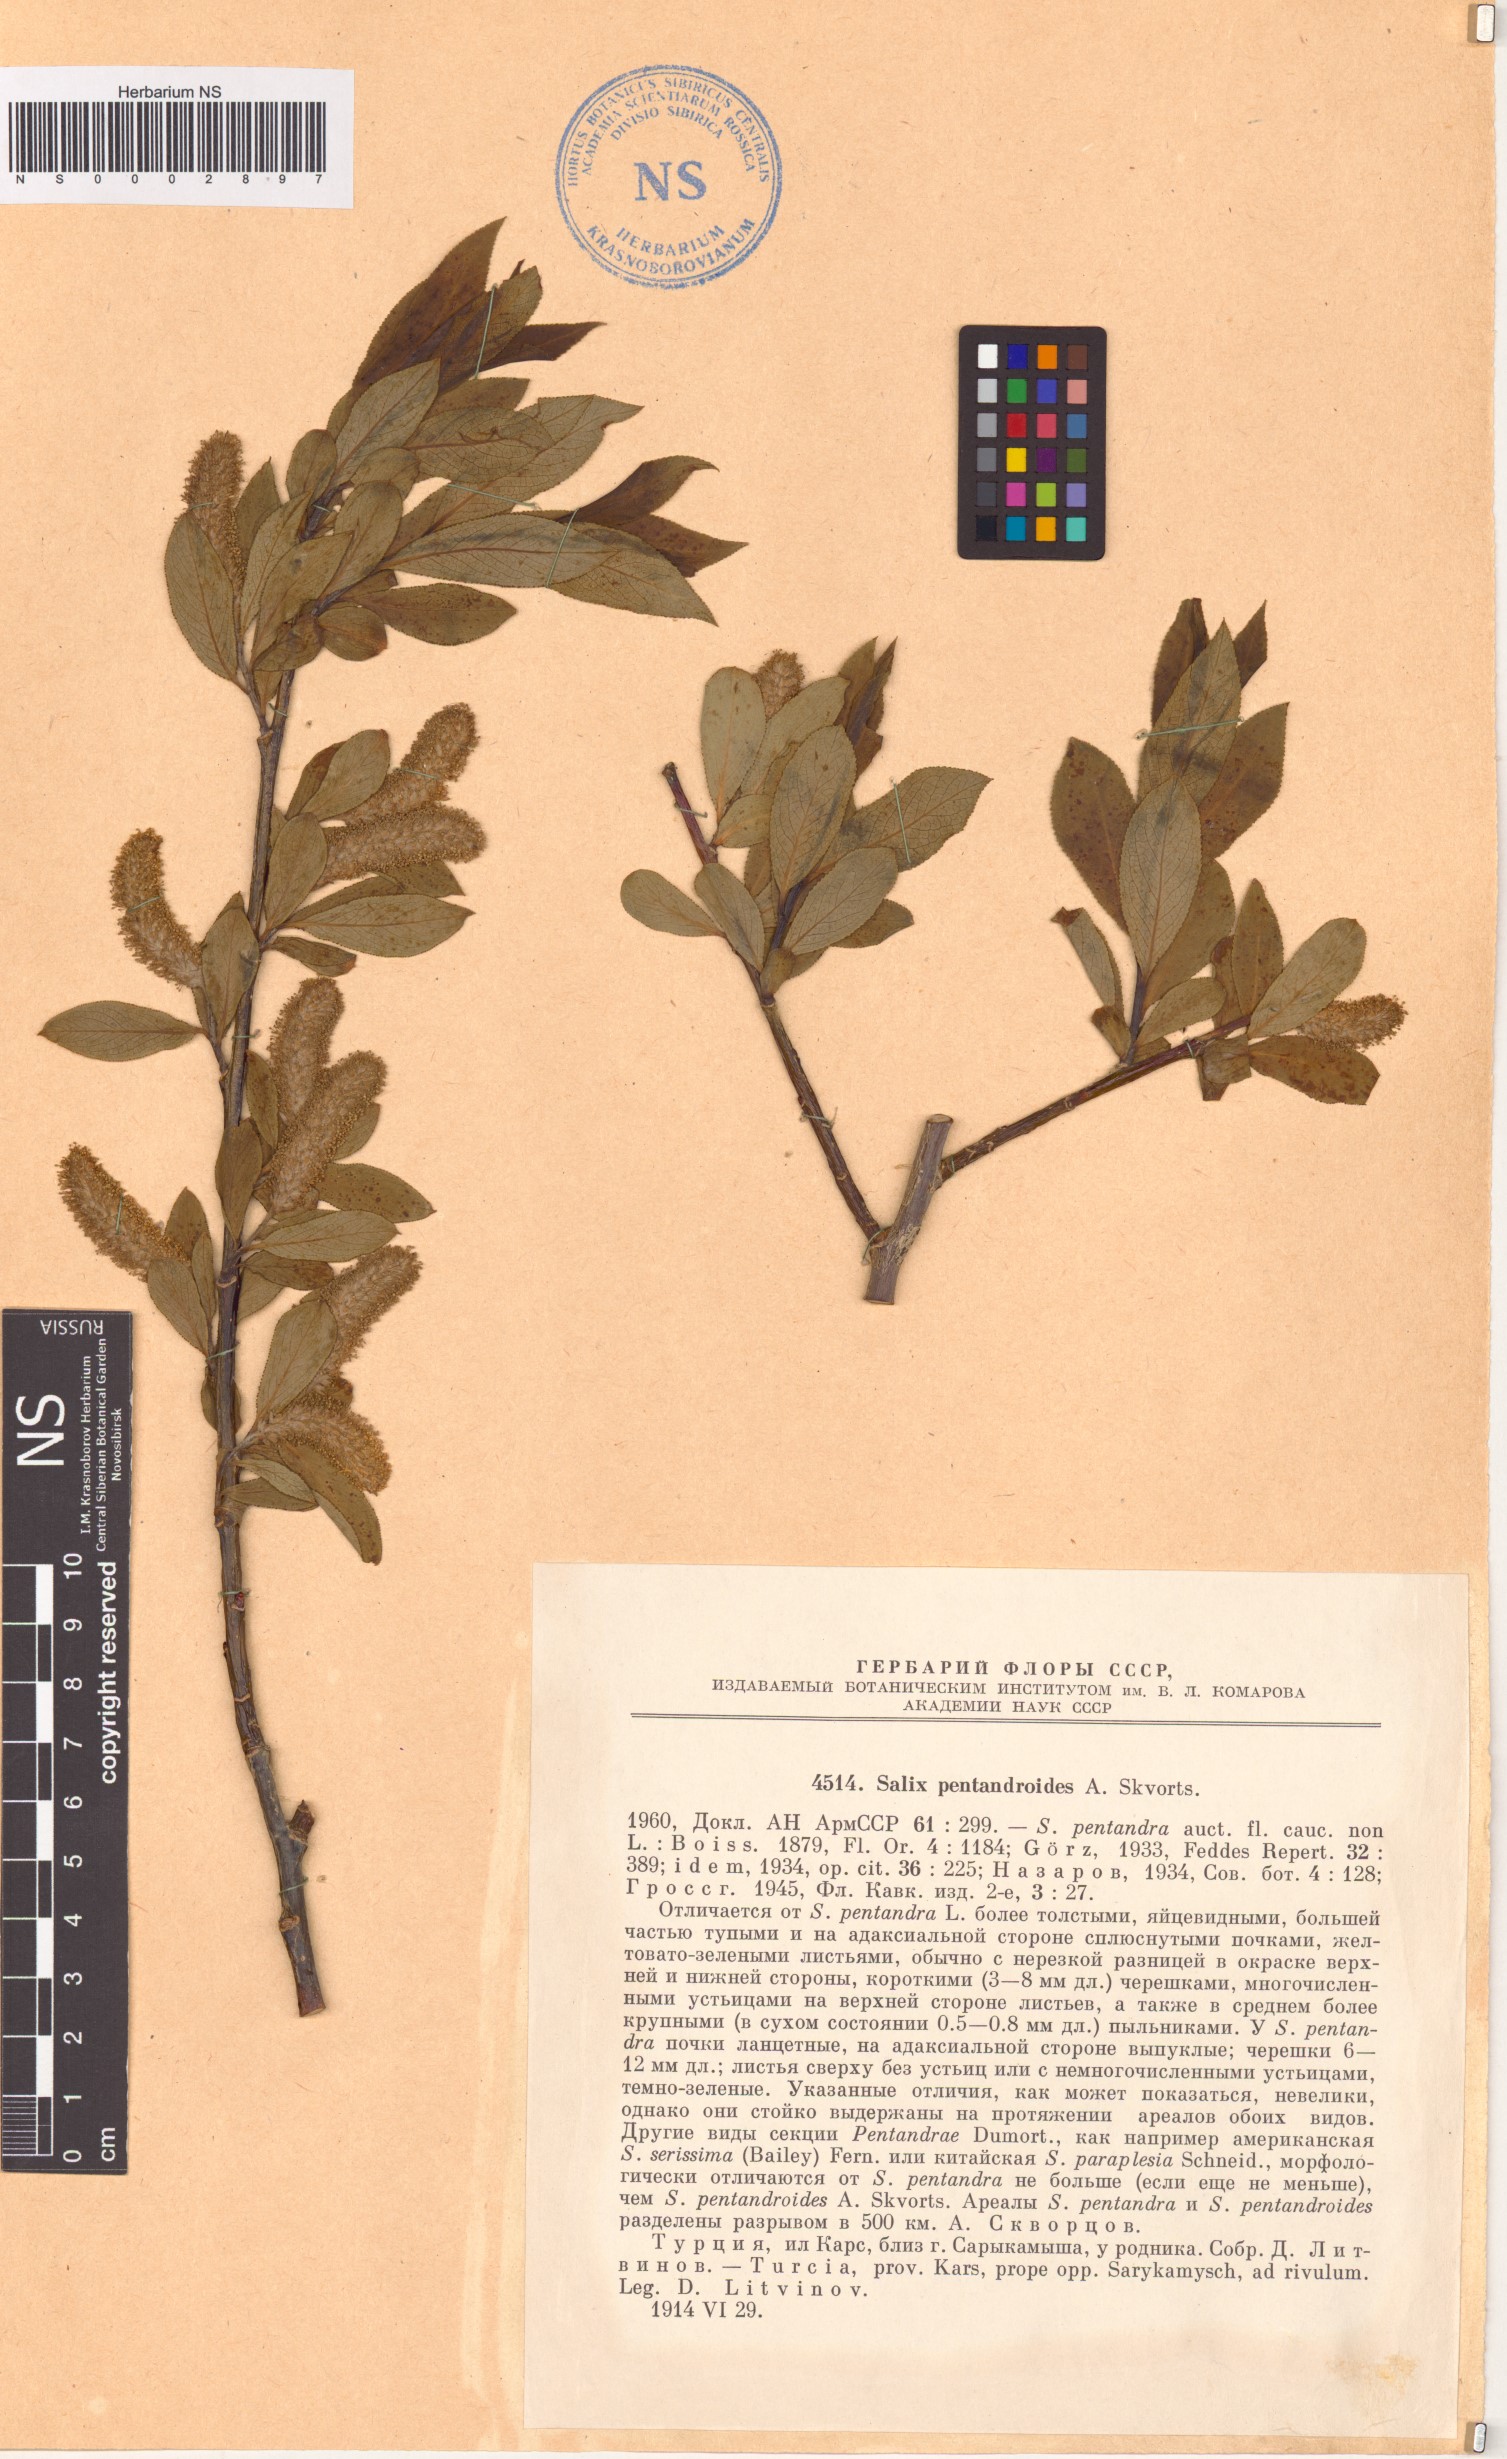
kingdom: Plantae
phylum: Tracheophyta
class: Magnoliopsida
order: Malpighiales
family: Salicaceae
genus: Salix
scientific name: Salix pentandrifolia
